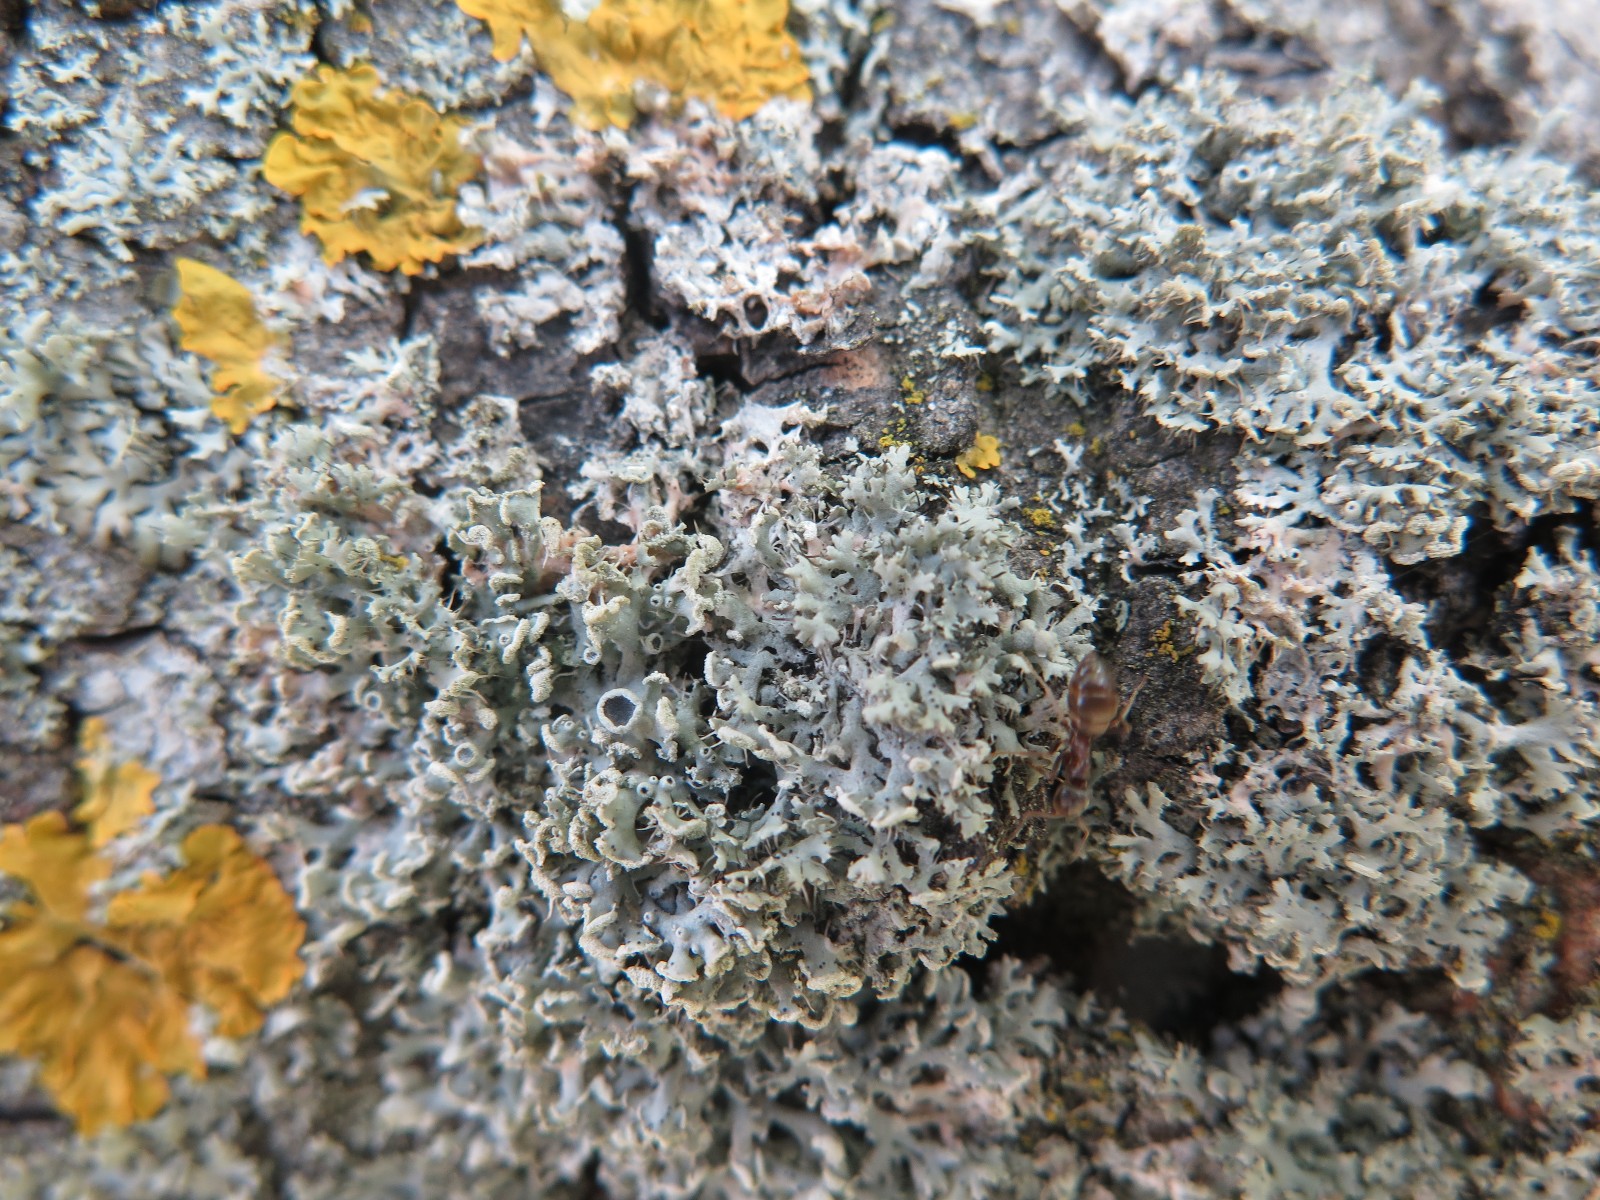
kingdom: Fungi
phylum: Ascomycota
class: Lecanoromycetes
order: Caliciales
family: Physciaceae
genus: Physcia
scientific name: Physcia tenella
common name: spæd rosetlav
